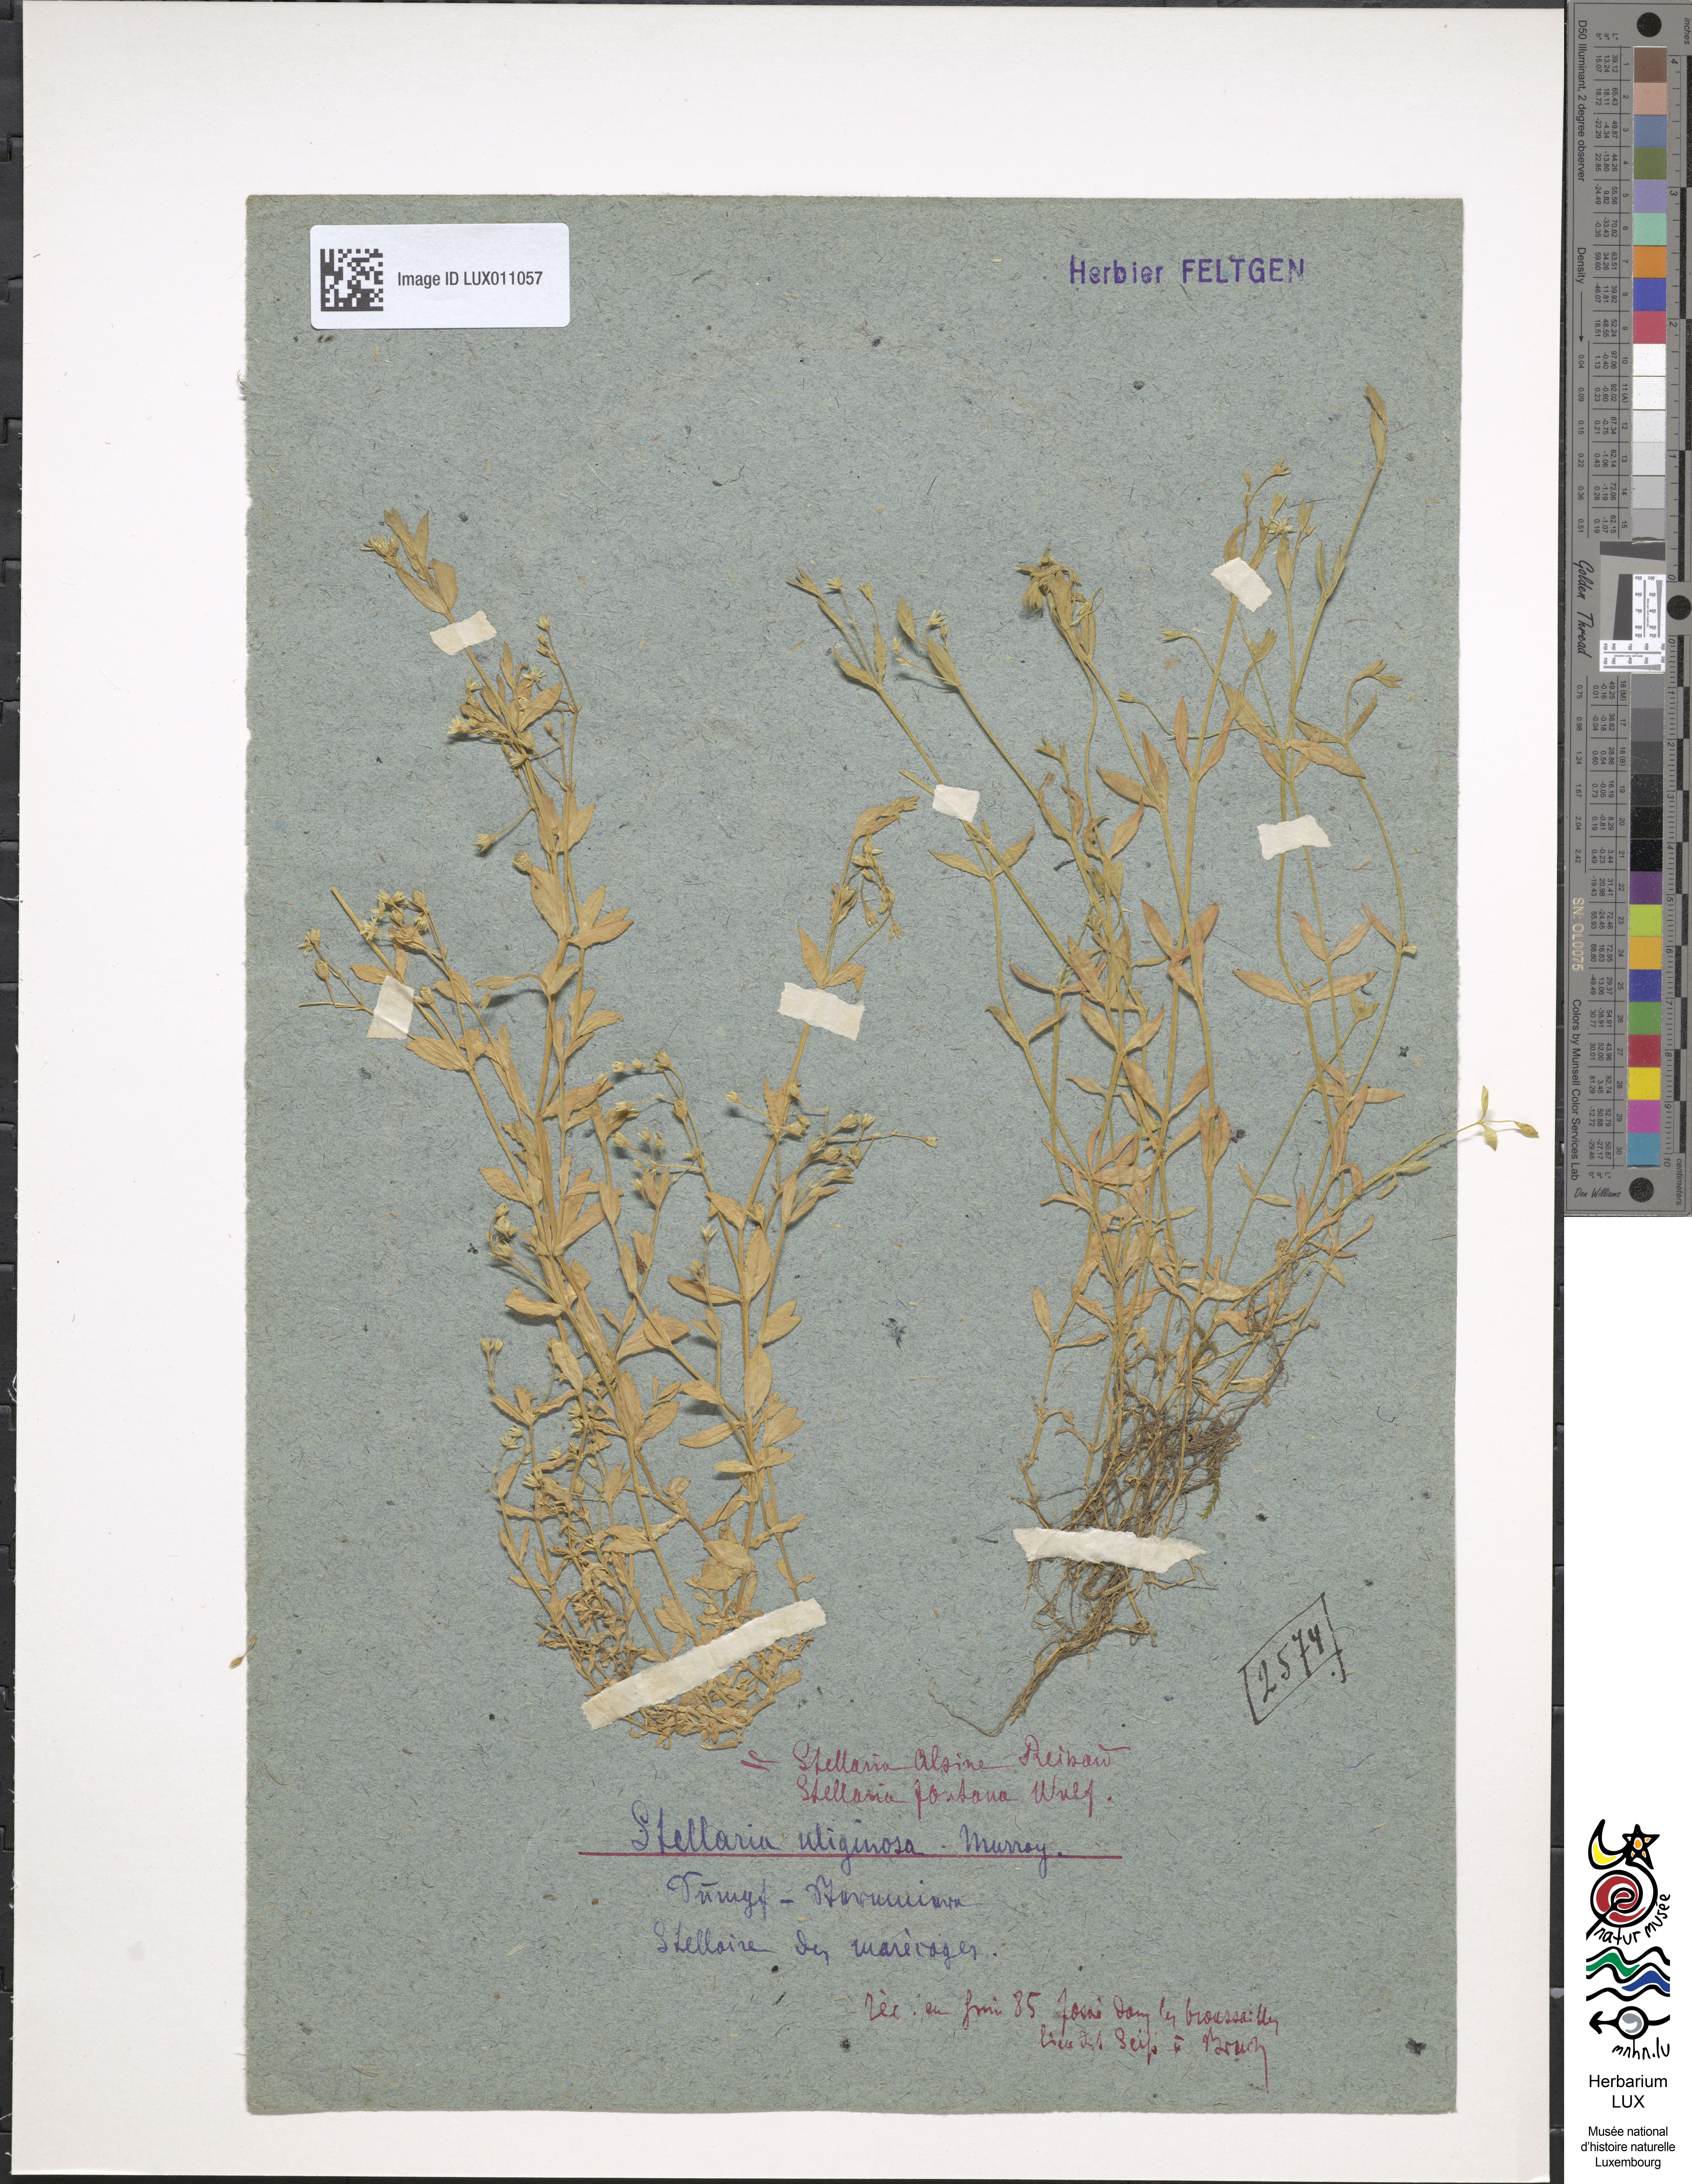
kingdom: Plantae
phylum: Tracheophyta
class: Magnoliopsida
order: Caryophyllales
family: Caryophyllaceae
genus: Stellaria
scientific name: Stellaria alsine
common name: Bog stitchwort
